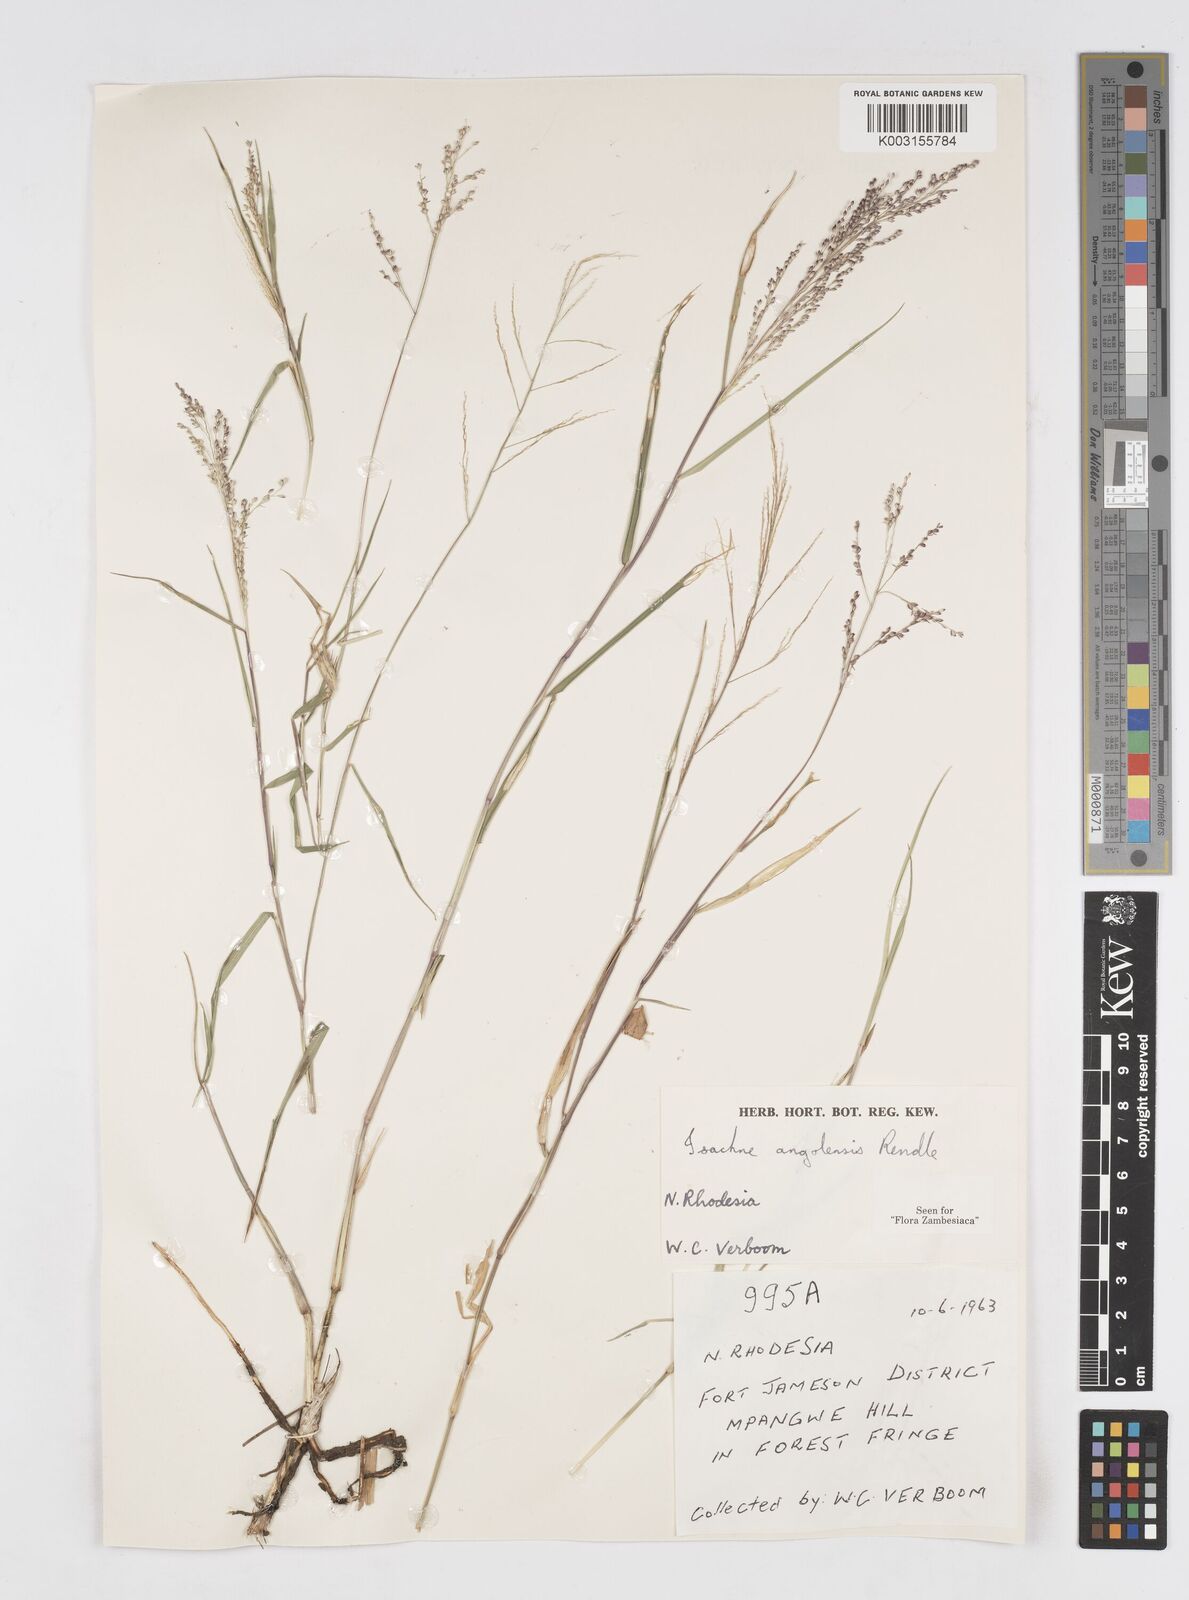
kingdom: Plantae
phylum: Tracheophyta
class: Liliopsida
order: Poales
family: Poaceae
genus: Isachne
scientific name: Isachne angolensis
